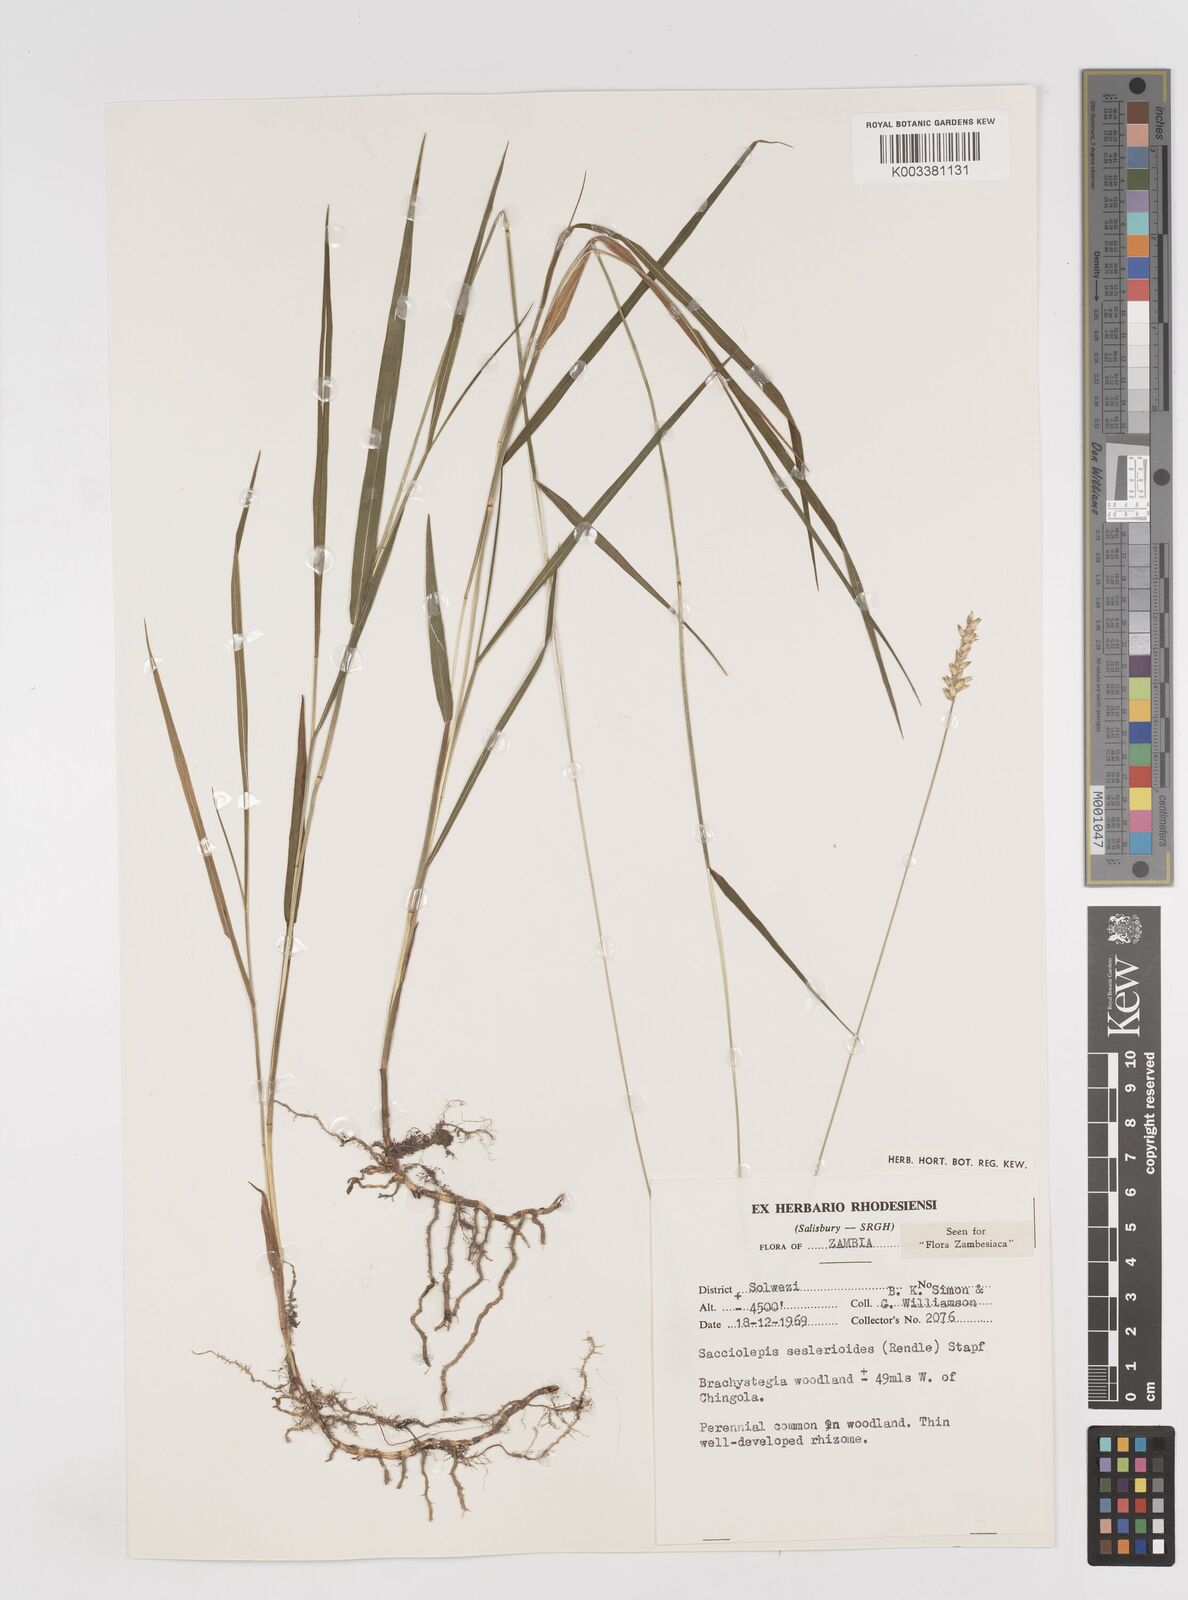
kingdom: Plantae
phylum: Tracheophyta
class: Liliopsida
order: Poales
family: Poaceae
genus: Sacciolepis
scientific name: Sacciolepis seslerioides
